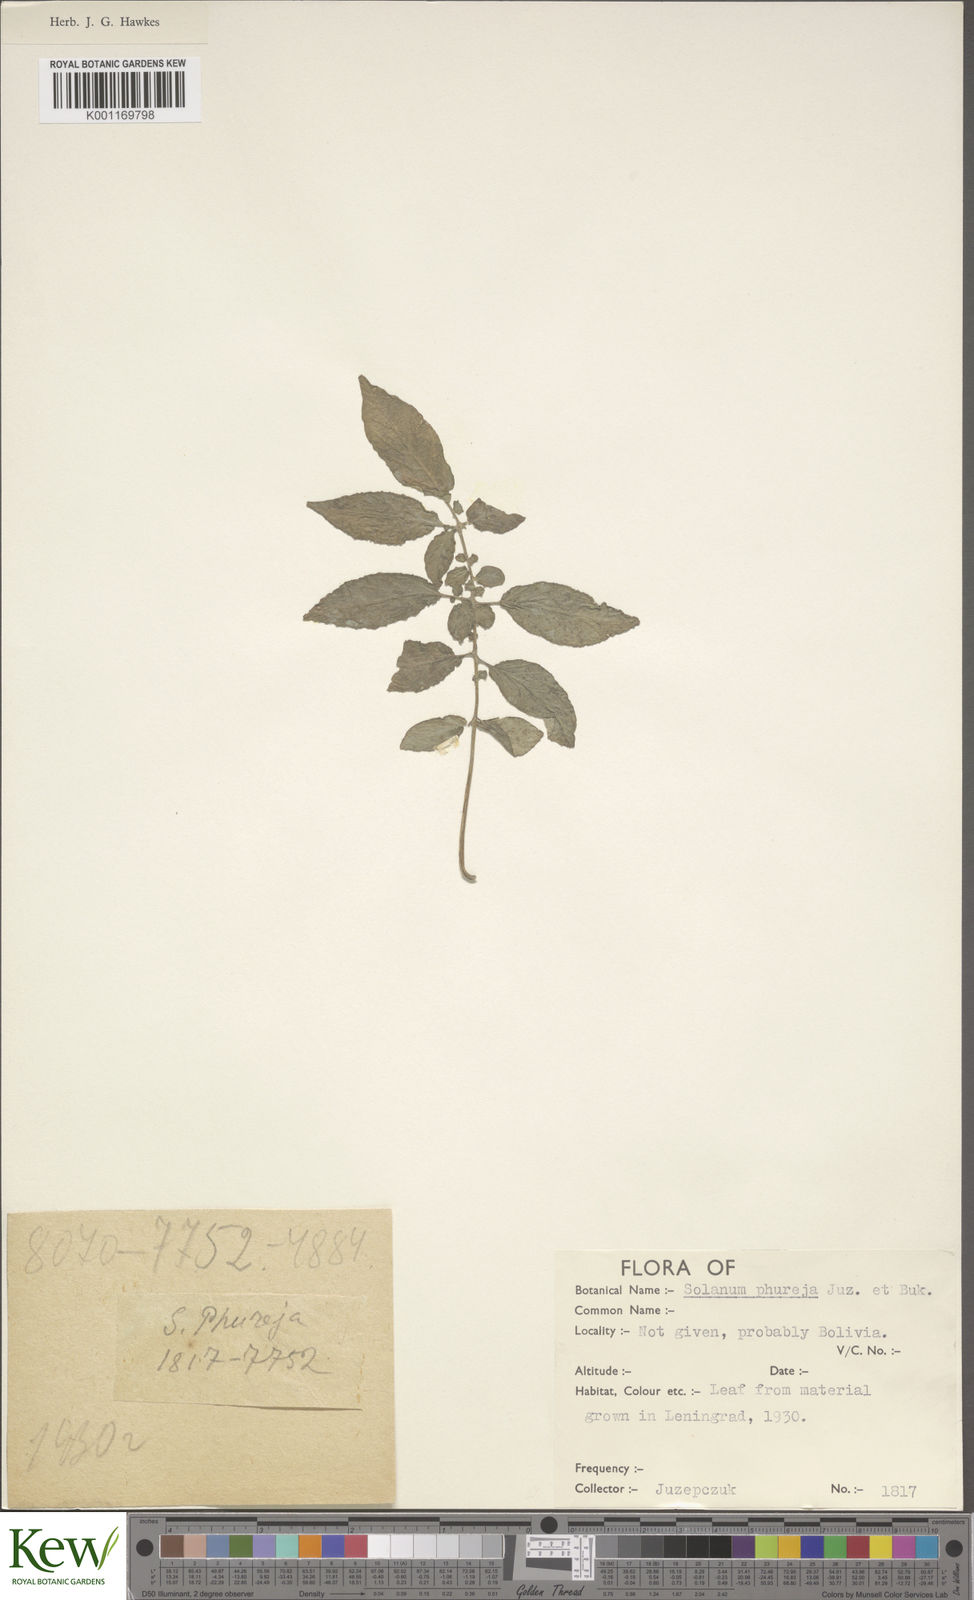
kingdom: Plantae
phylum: Tracheophyta
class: Magnoliopsida
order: Solanales
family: Solanaceae
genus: Solanum
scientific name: Solanum tuberosum
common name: Potato
